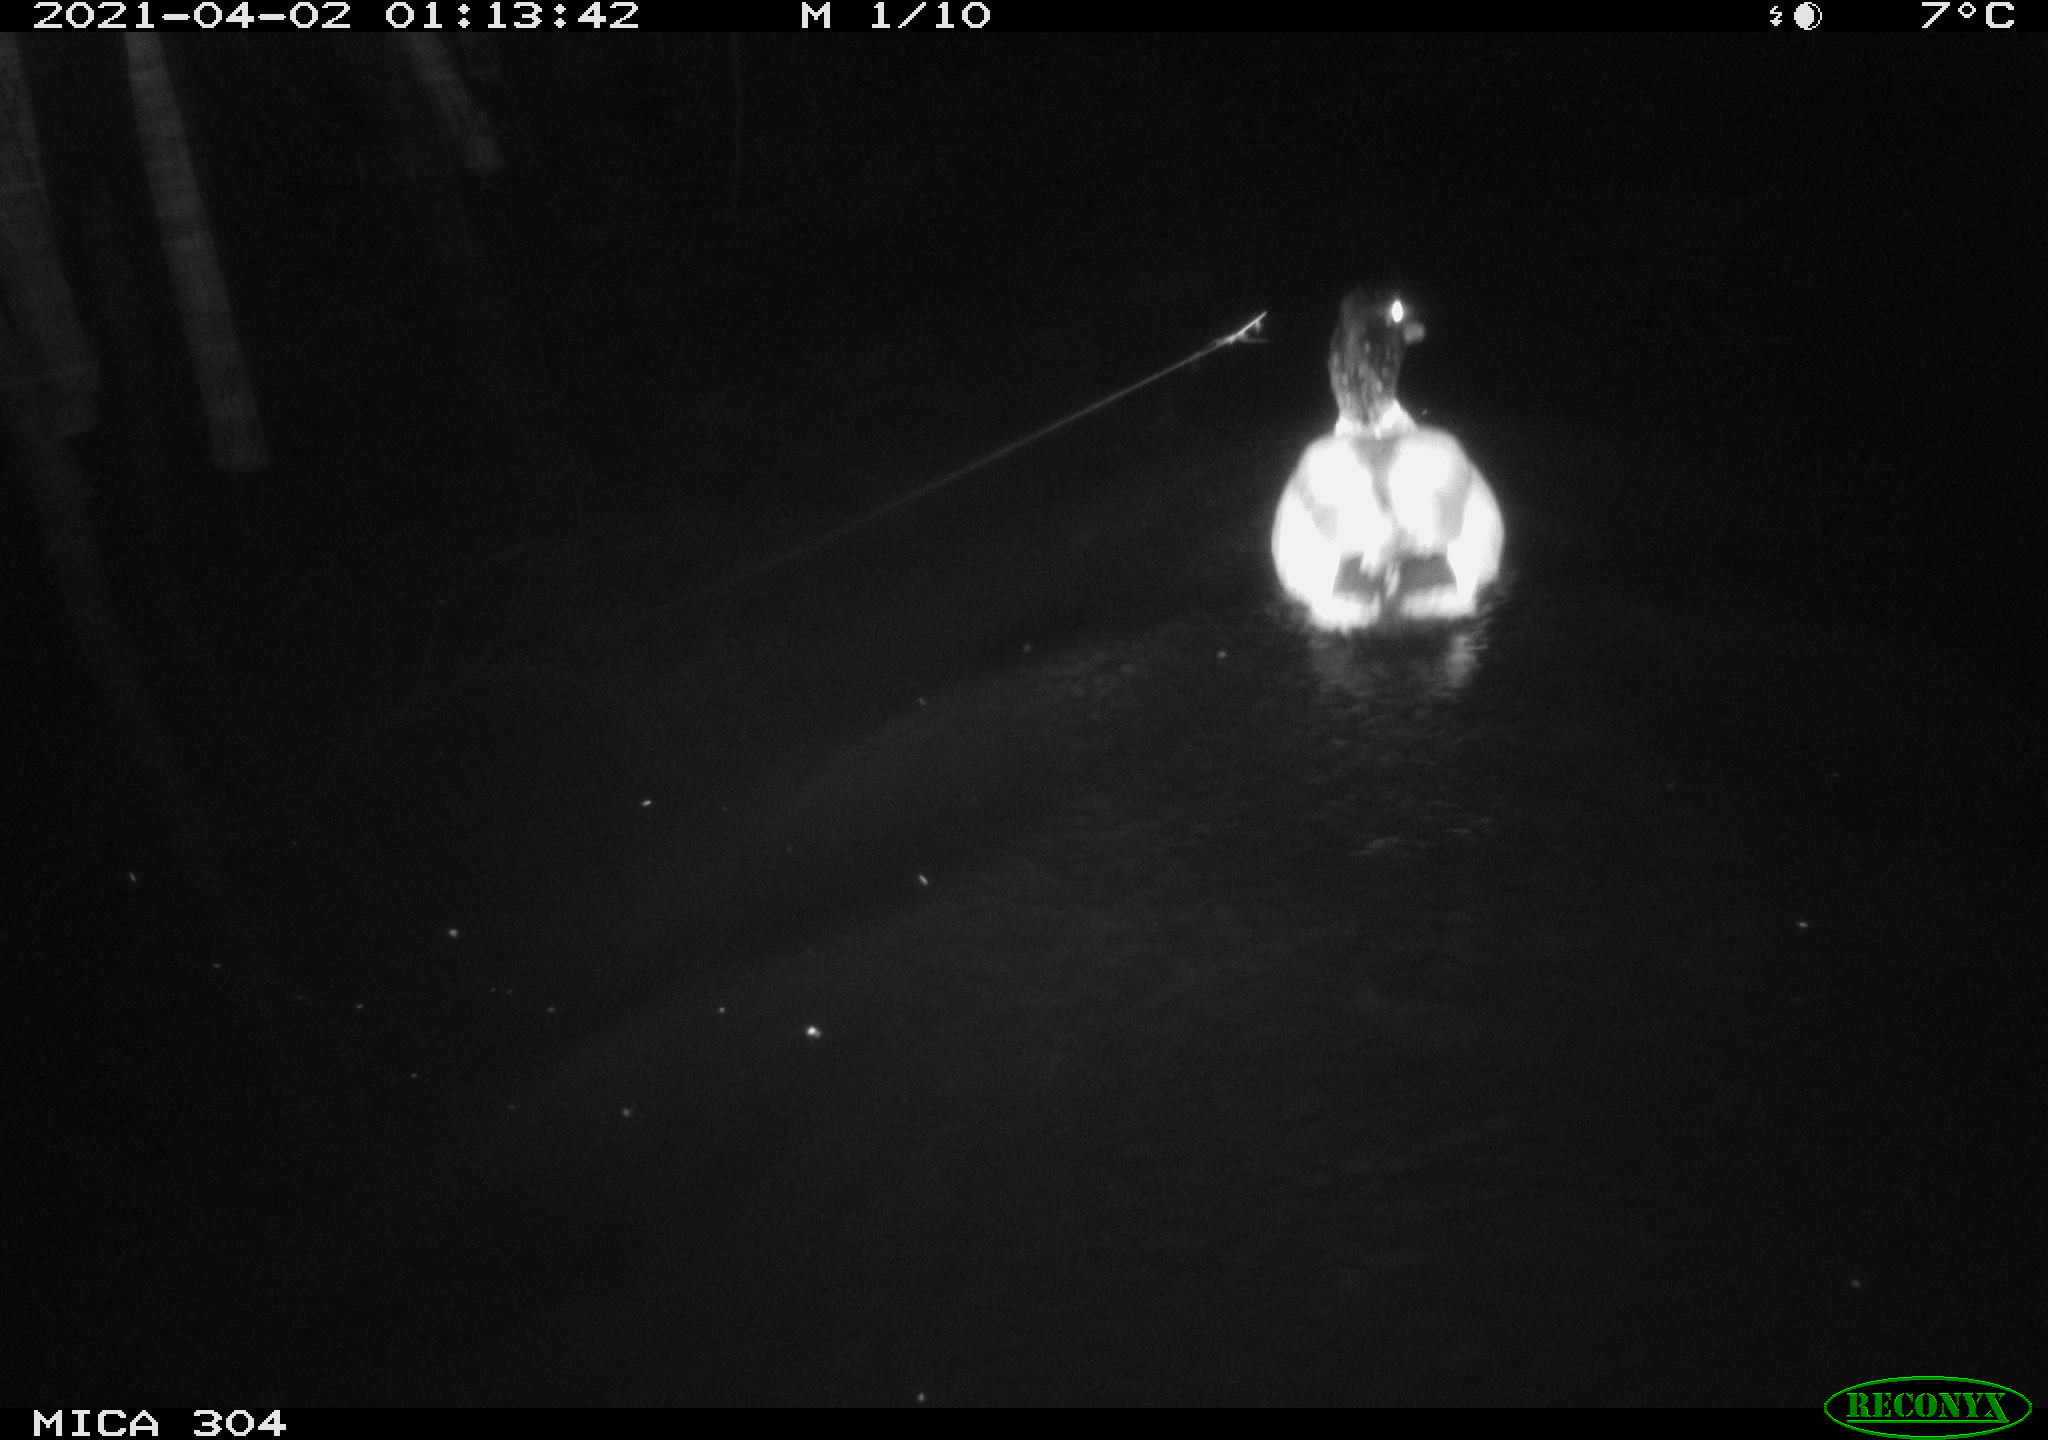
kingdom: Animalia
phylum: Chordata
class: Aves
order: Anseriformes
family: Anatidae
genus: Anas
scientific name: Anas
